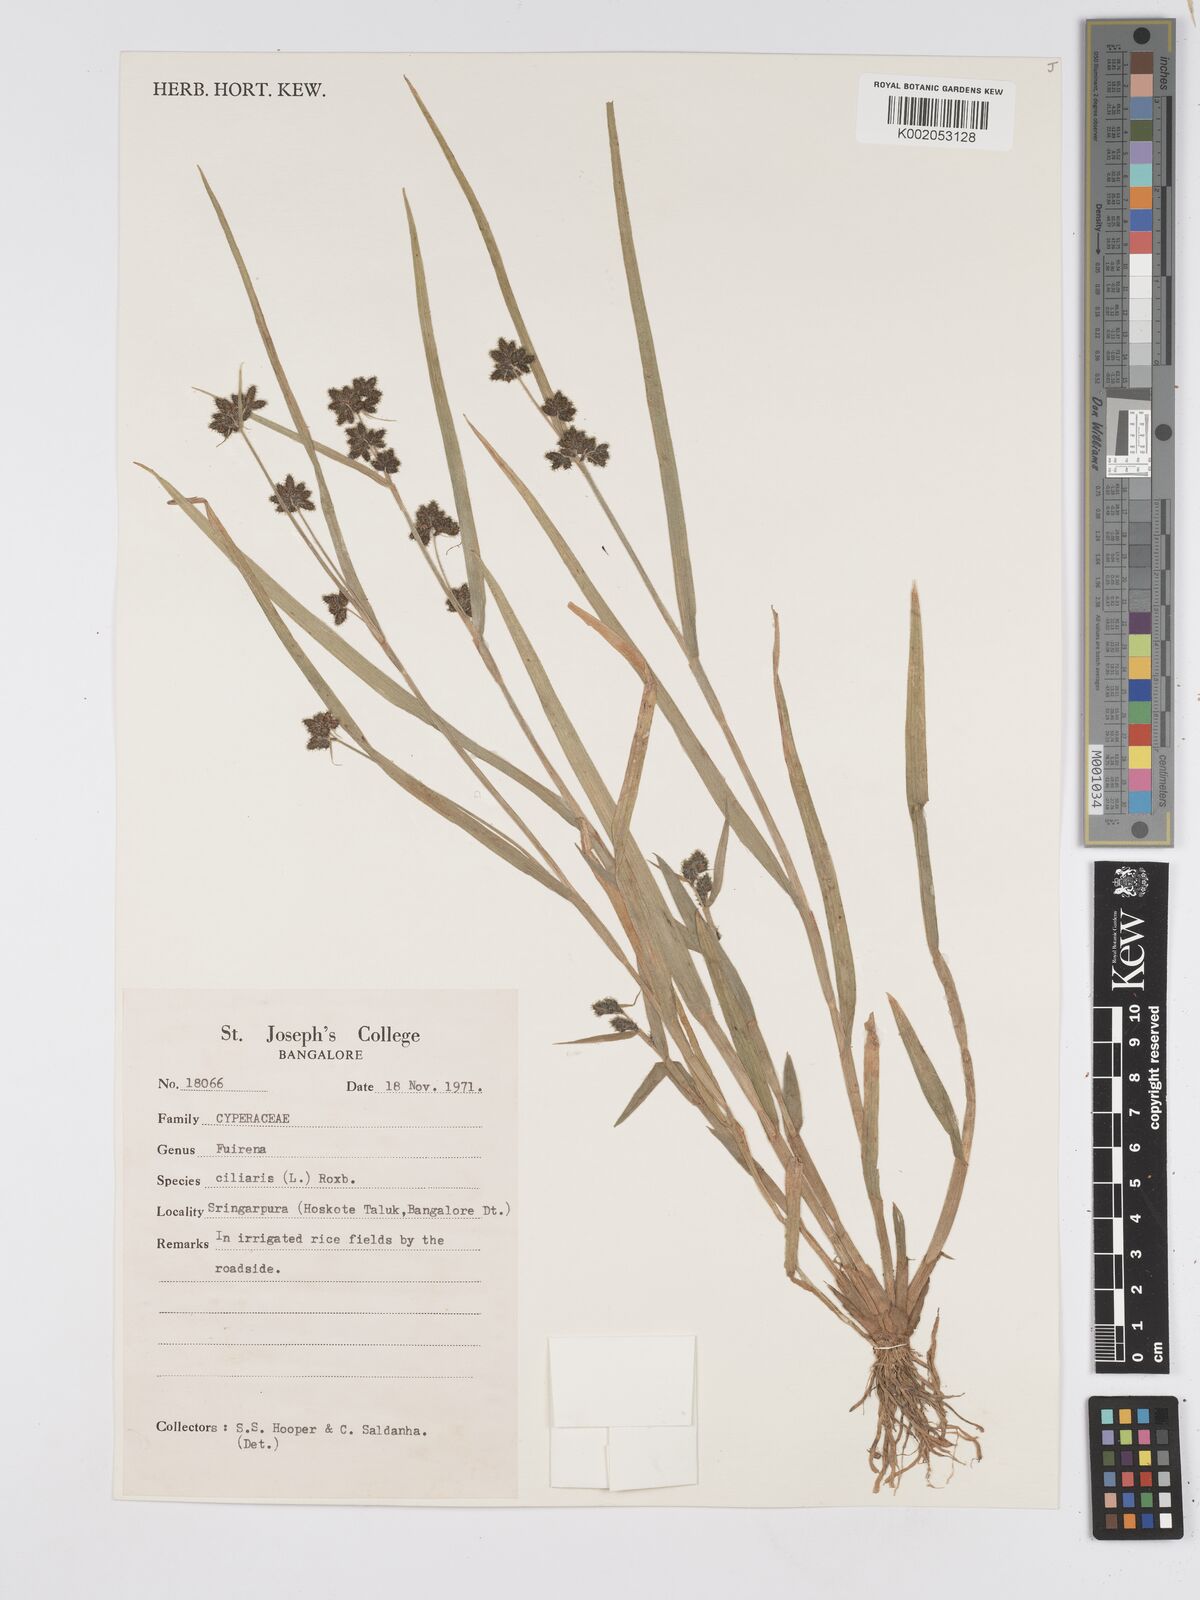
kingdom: Plantae
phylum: Tracheophyta
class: Liliopsida
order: Poales
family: Cyperaceae
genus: Fuirena
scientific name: Fuirena ciliaris
